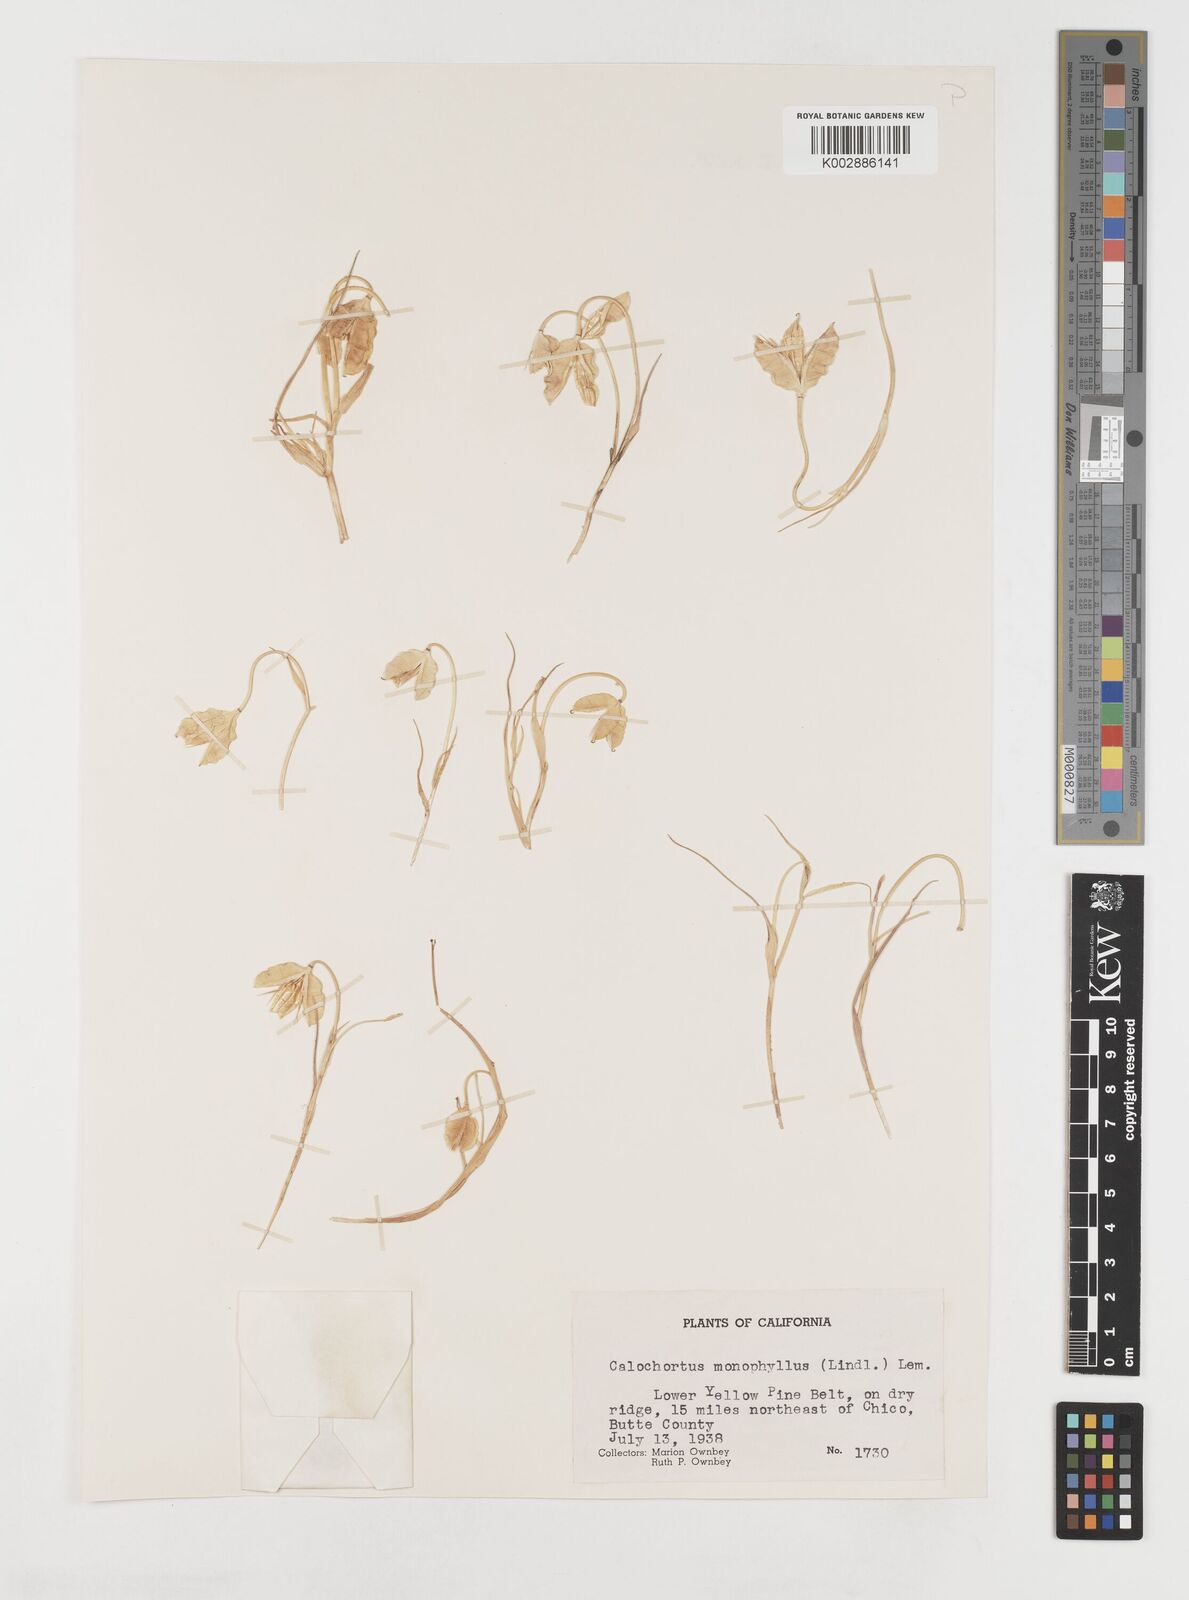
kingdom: Plantae
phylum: Tracheophyta
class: Liliopsida
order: Liliales
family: Liliaceae
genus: Calochortus
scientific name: Calochortus monophyllus
